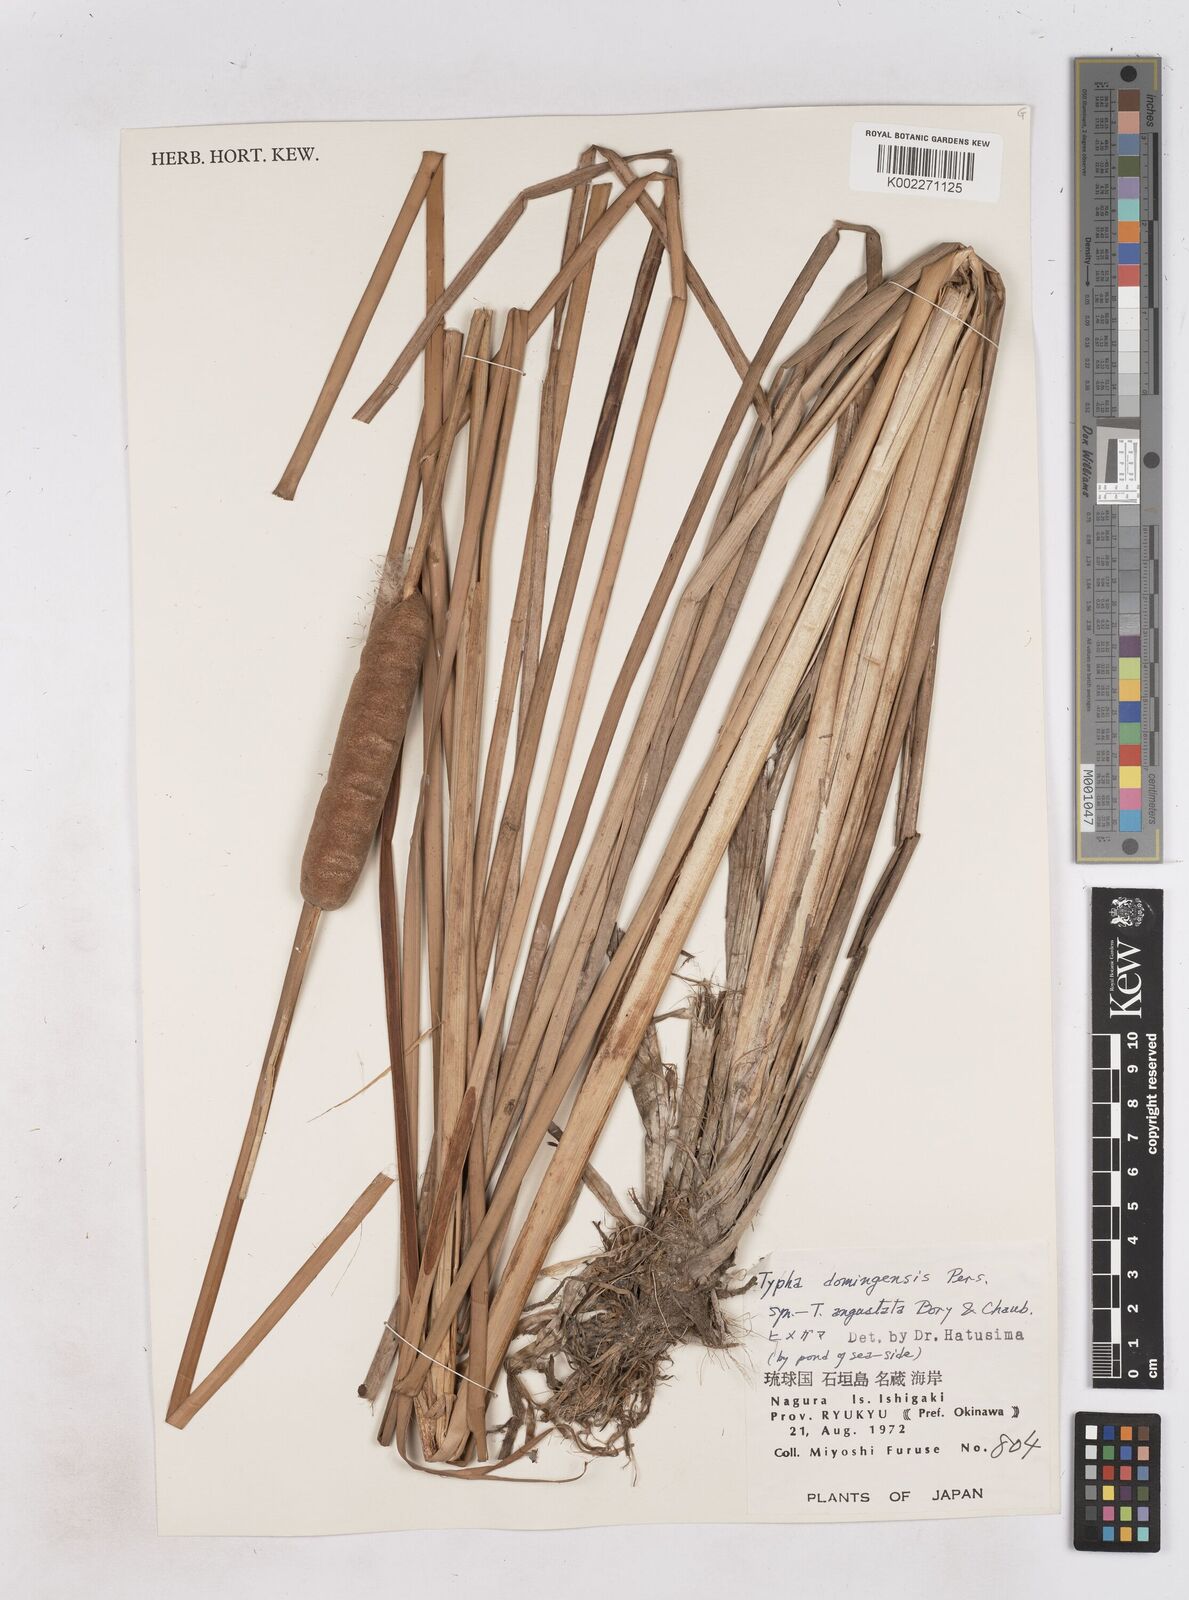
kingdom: Plantae
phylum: Tracheophyta
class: Liliopsida
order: Poales
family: Typhaceae
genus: Typha
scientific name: Typha domingensis
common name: Southern cattail
